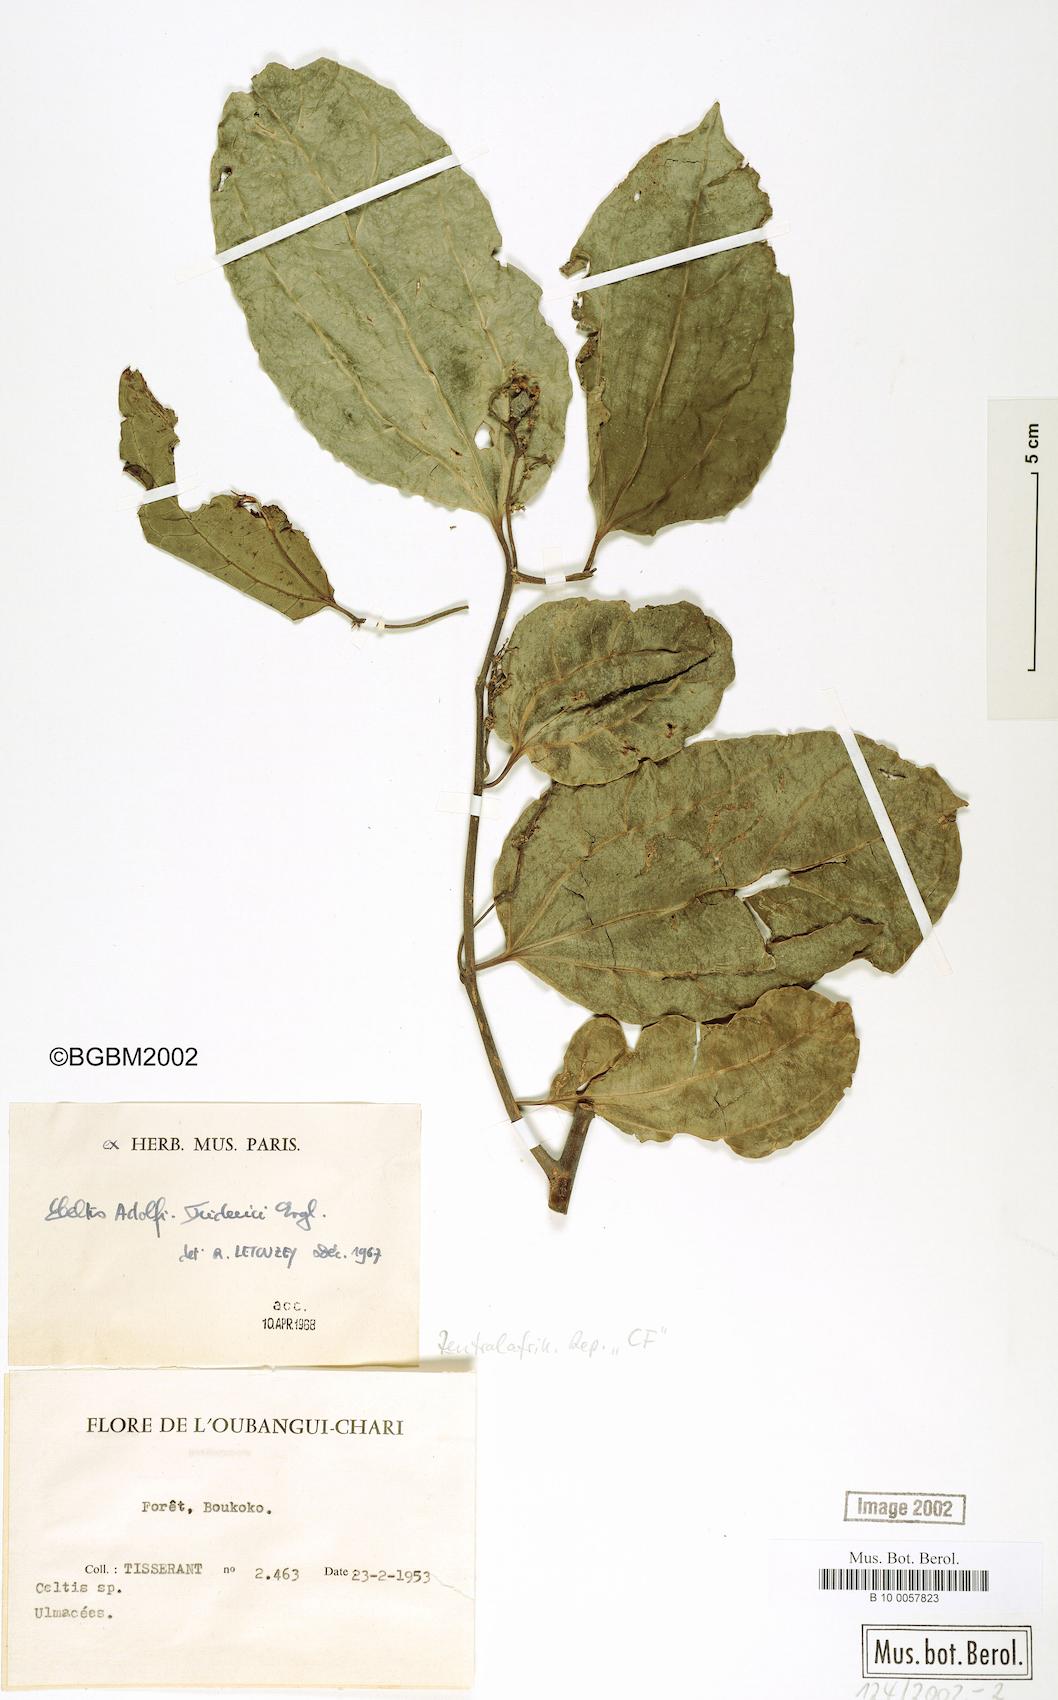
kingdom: Plantae
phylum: Tracheophyta
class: Magnoliopsida
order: Rosales
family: Cannabaceae
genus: Celtis
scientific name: Celtis adolfi-friderici
